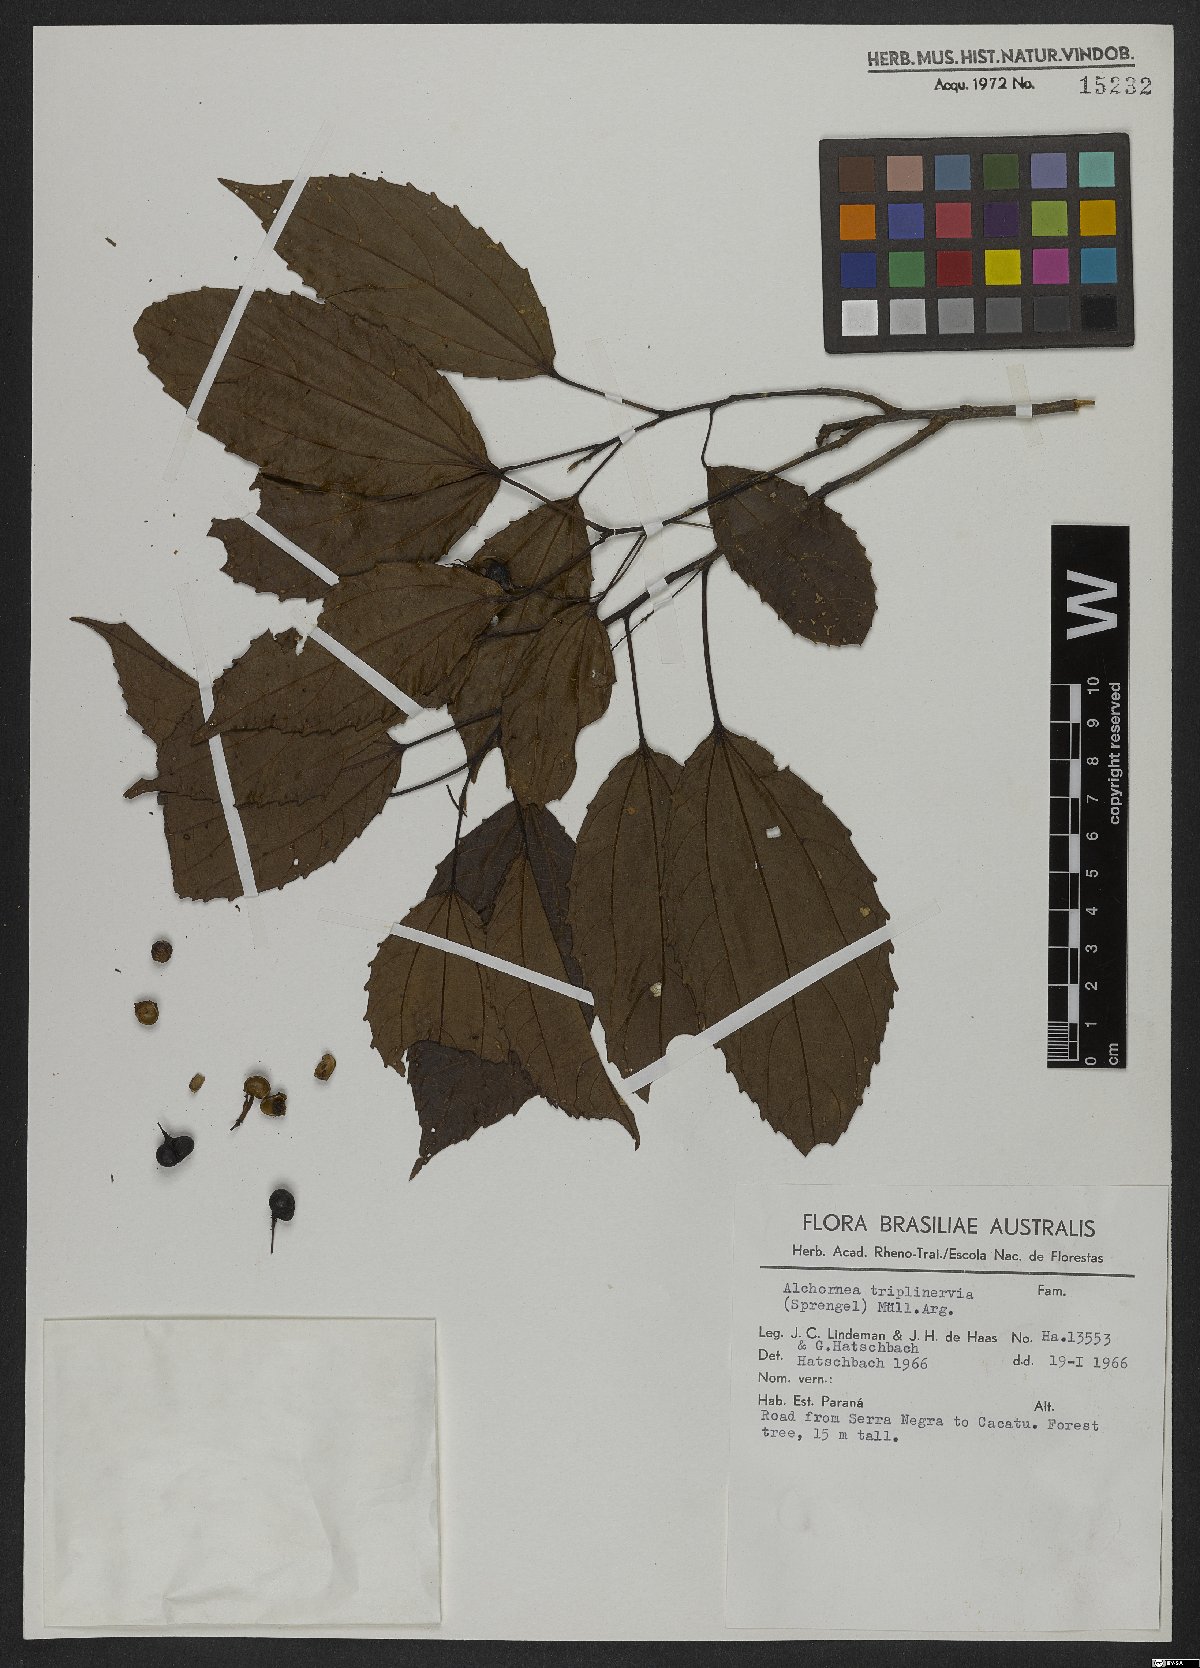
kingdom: Plantae
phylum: Tracheophyta
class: Magnoliopsida
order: Malpighiales
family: Euphorbiaceae
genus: Alchornea
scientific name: Alchornea triplinervia
